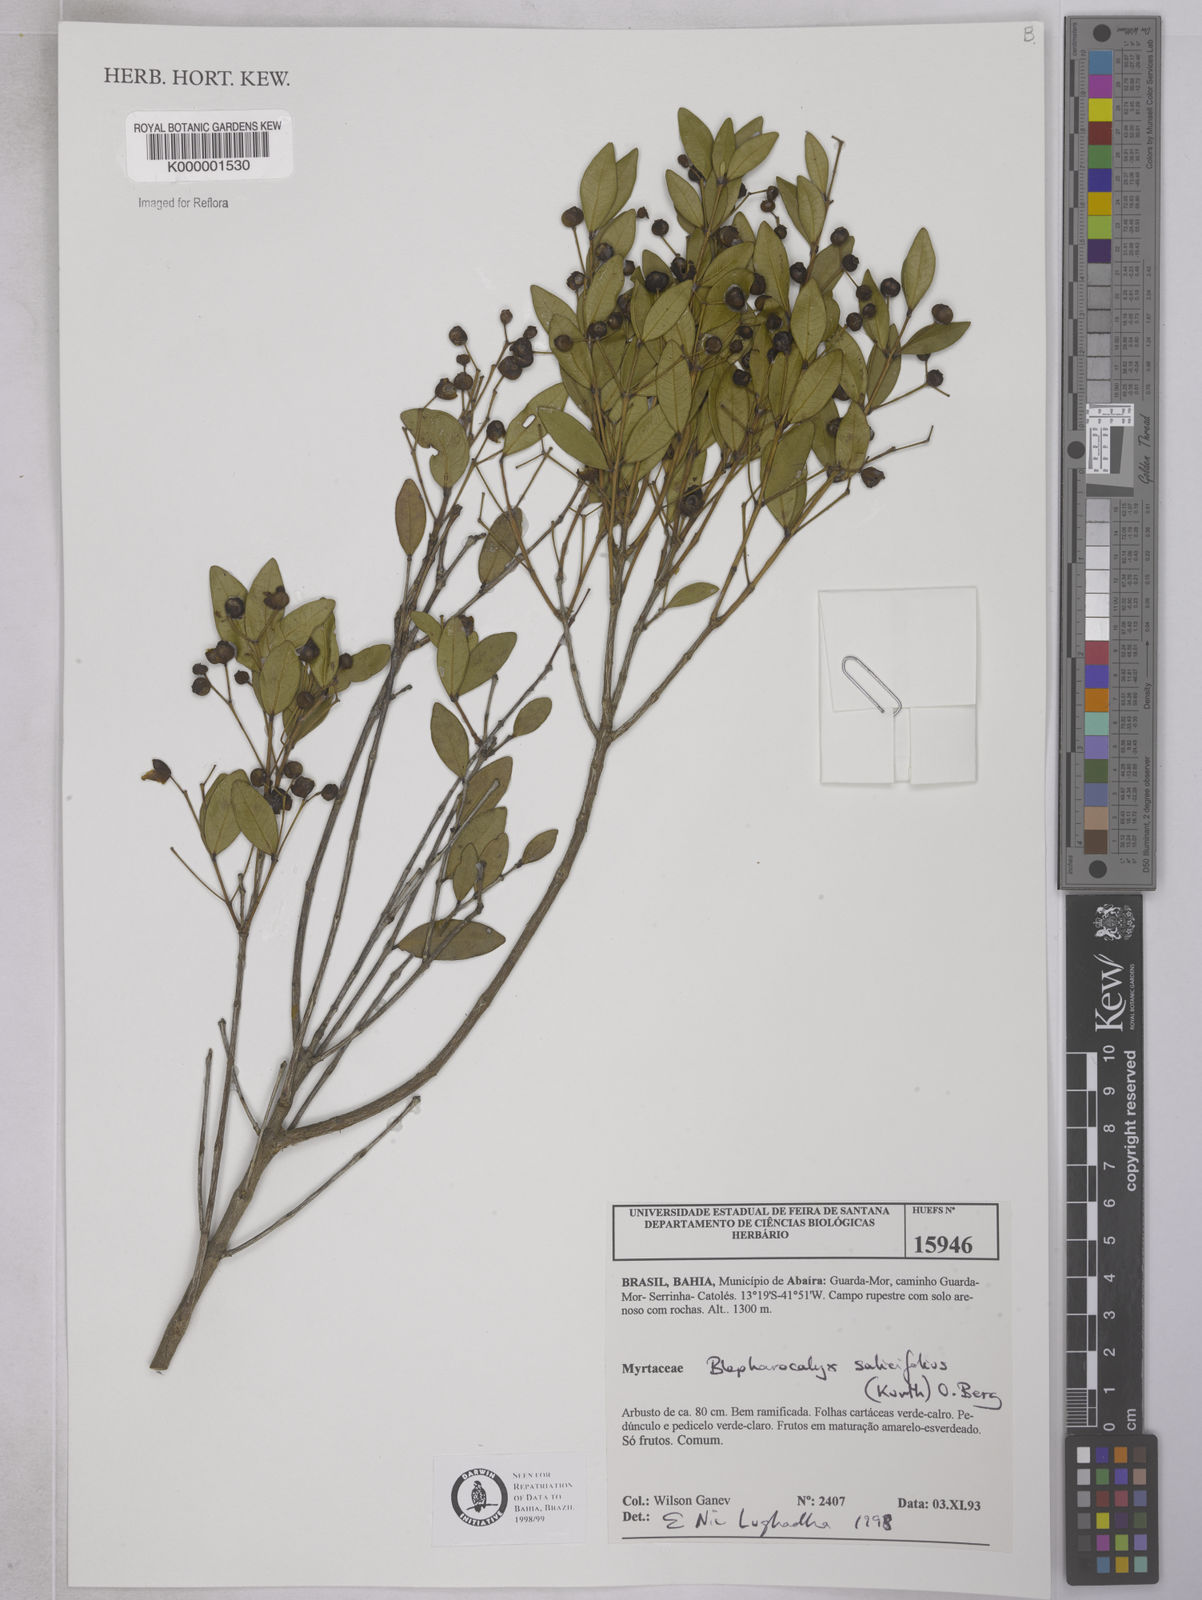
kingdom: Plantae
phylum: Tracheophyta
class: Magnoliopsida
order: Myrtales
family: Myrtaceae
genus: Blepharocalyx
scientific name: Blepharocalyx salicifolius
